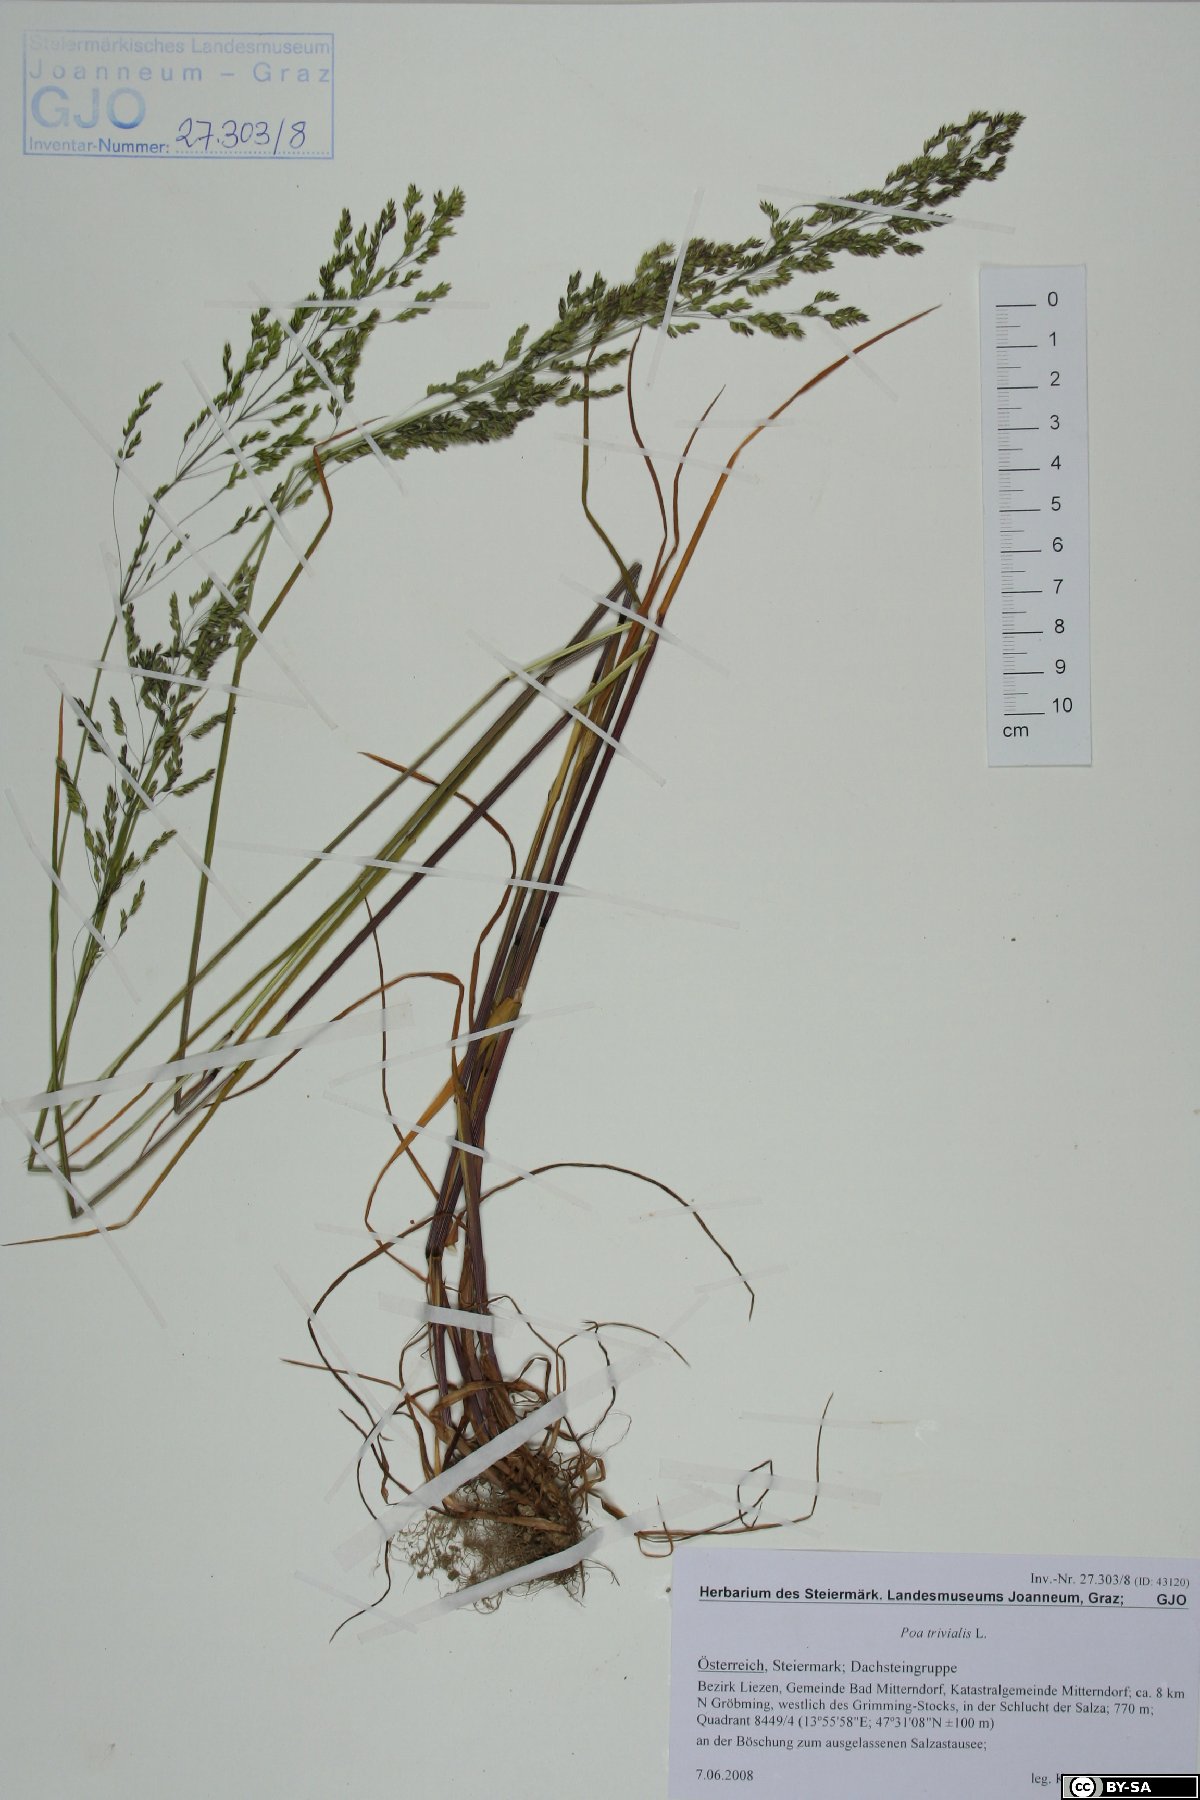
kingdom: Plantae
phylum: Tracheophyta
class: Liliopsida
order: Poales
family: Poaceae
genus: Poa
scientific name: Poa trivialis
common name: Rough bluegrass
